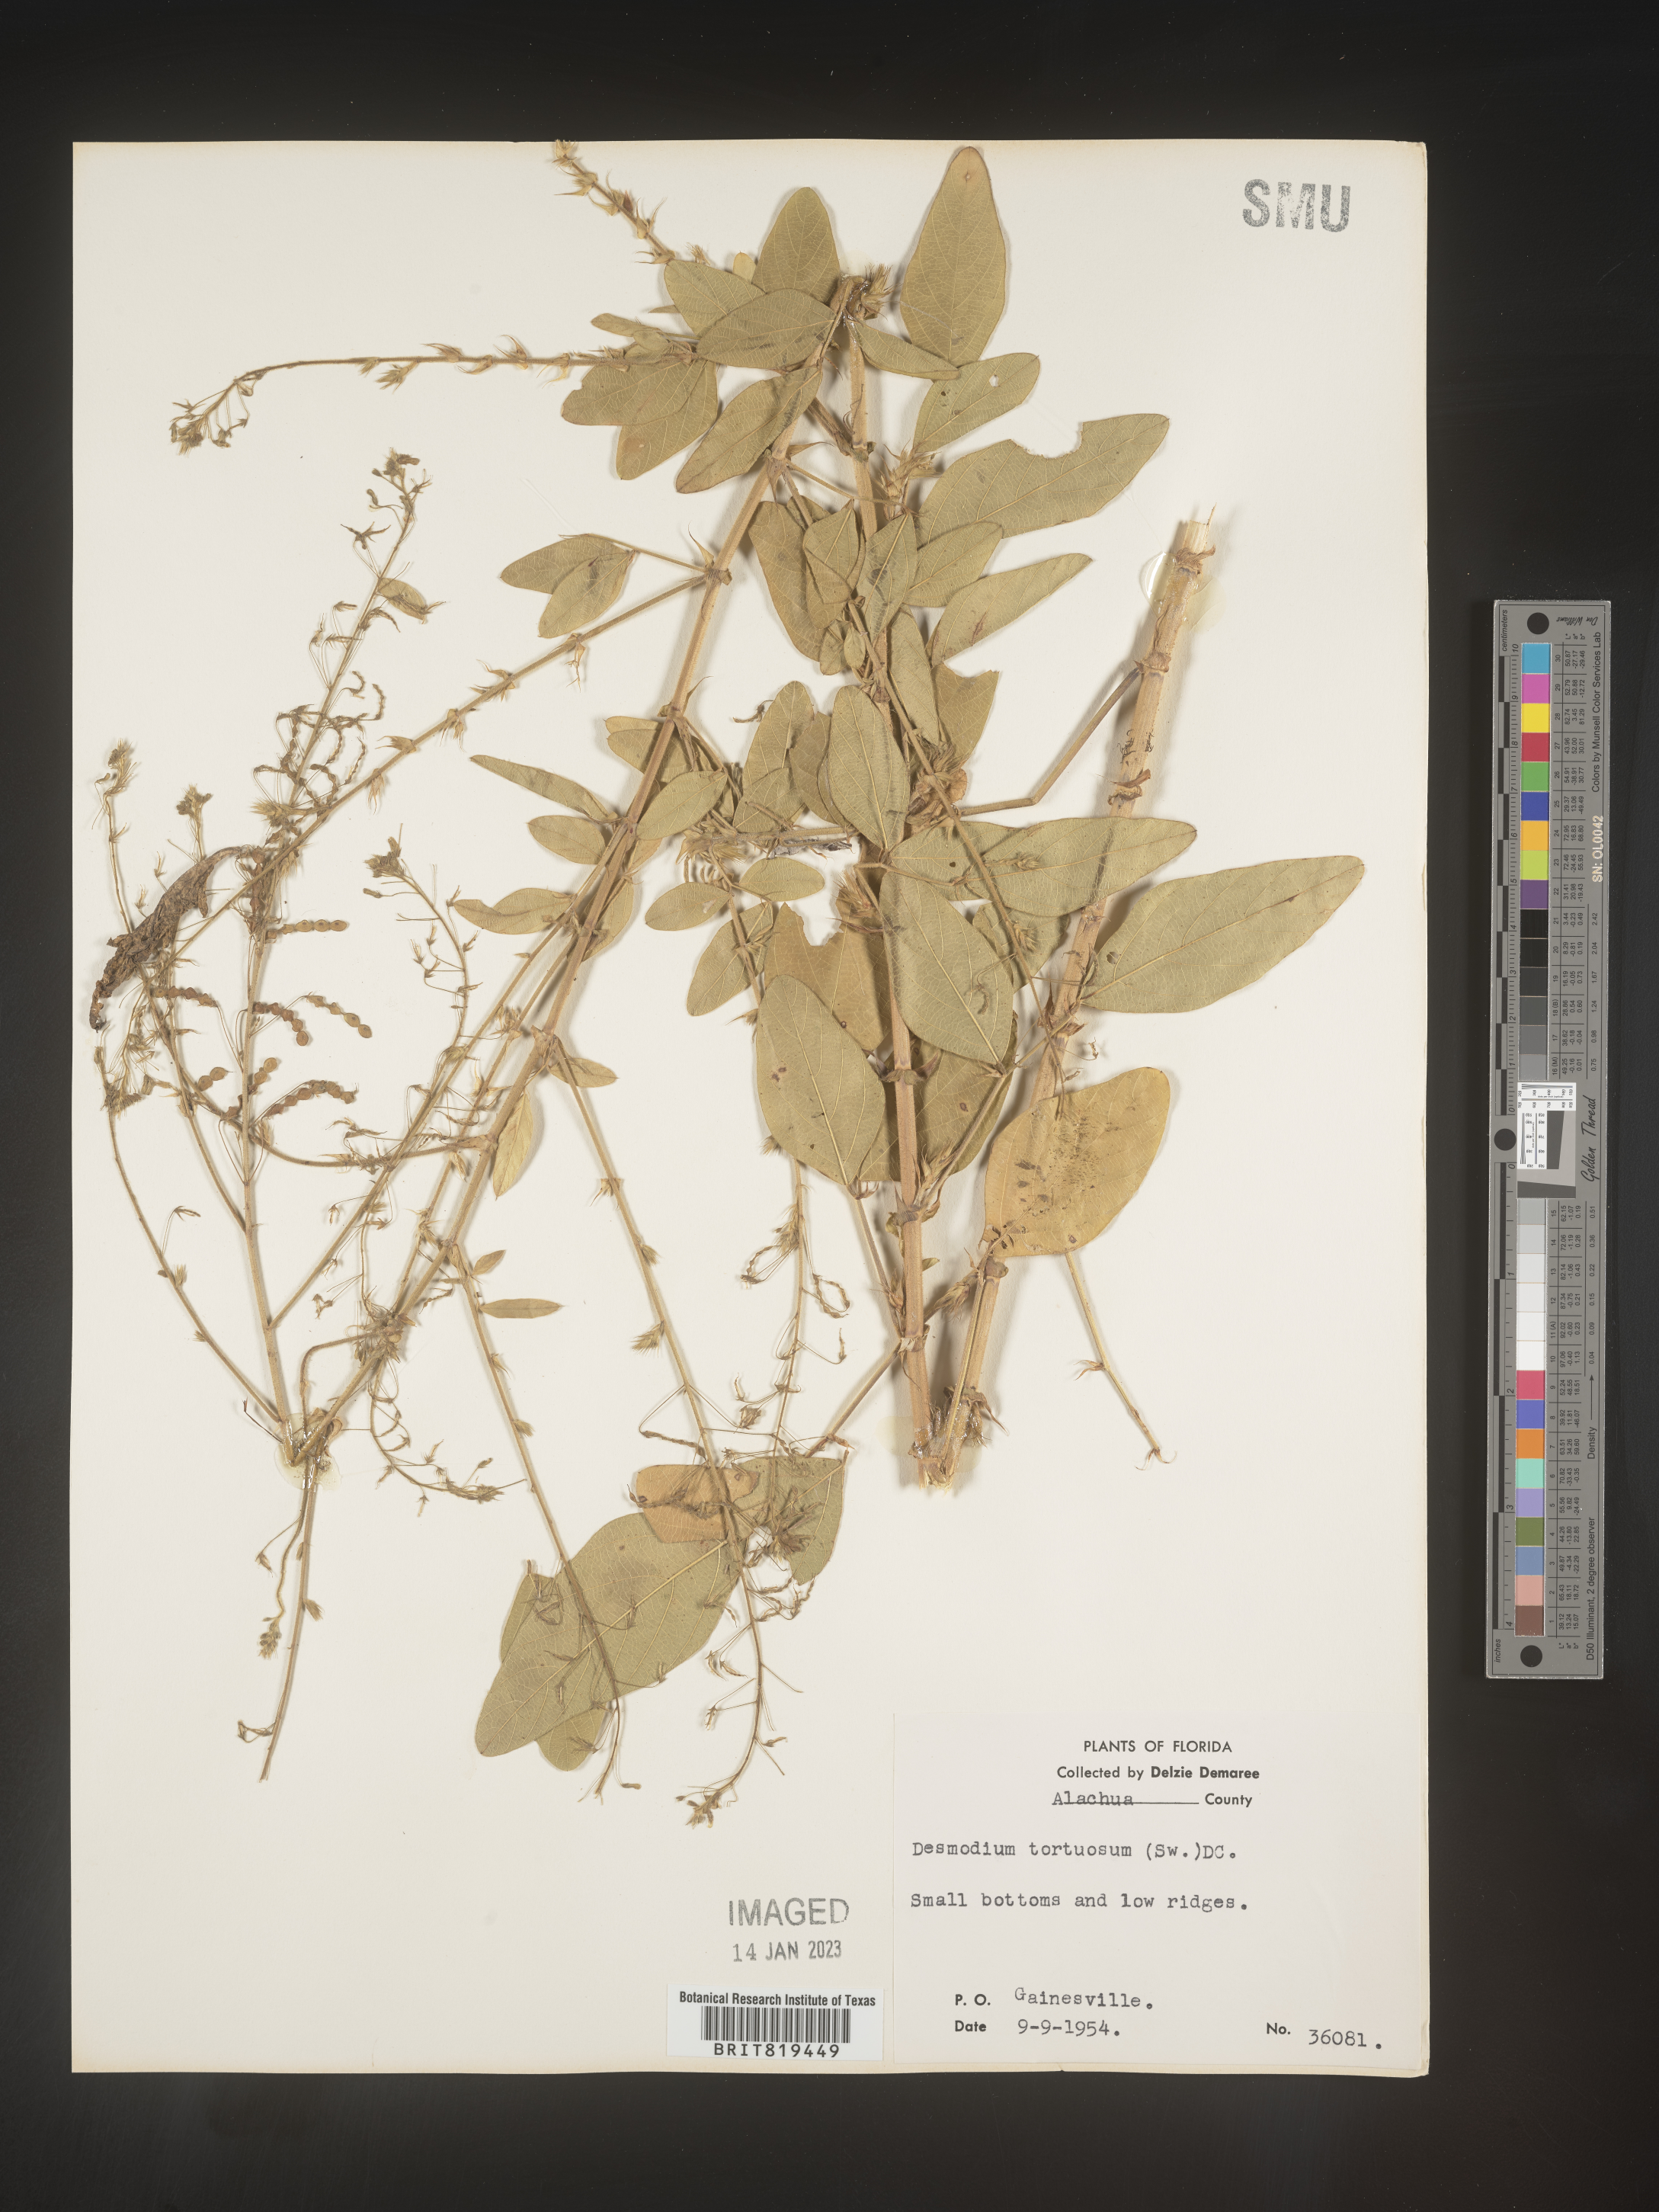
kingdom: Plantae
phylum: Tracheophyta
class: Magnoliopsida
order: Fabales
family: Fabaceae
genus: Desmodium
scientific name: Desmodium tortuosum
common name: Dixie ticktrefoil
